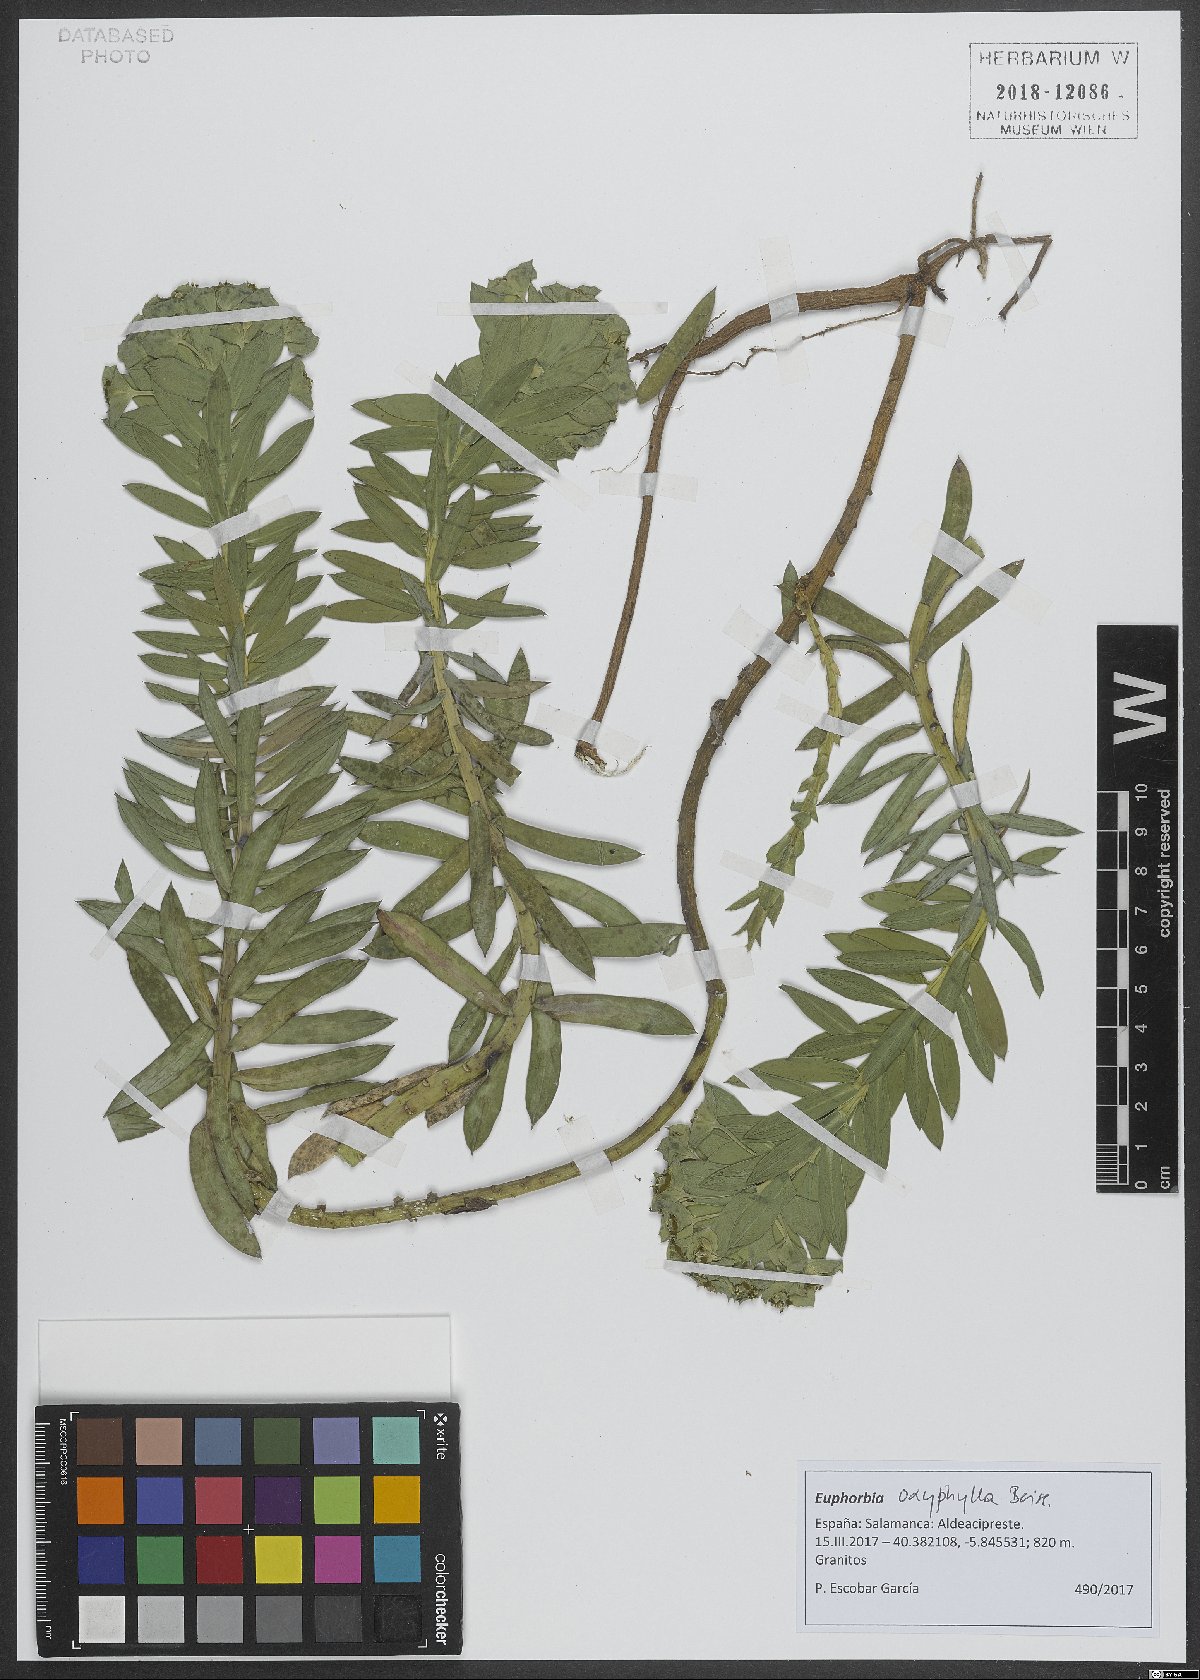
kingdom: Plantae
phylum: Tracheophyta
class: Magnoliopsida
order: Malpighiales
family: Euphorbiaceae
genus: Euphorbia
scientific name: Euphorbia oxyphylla
